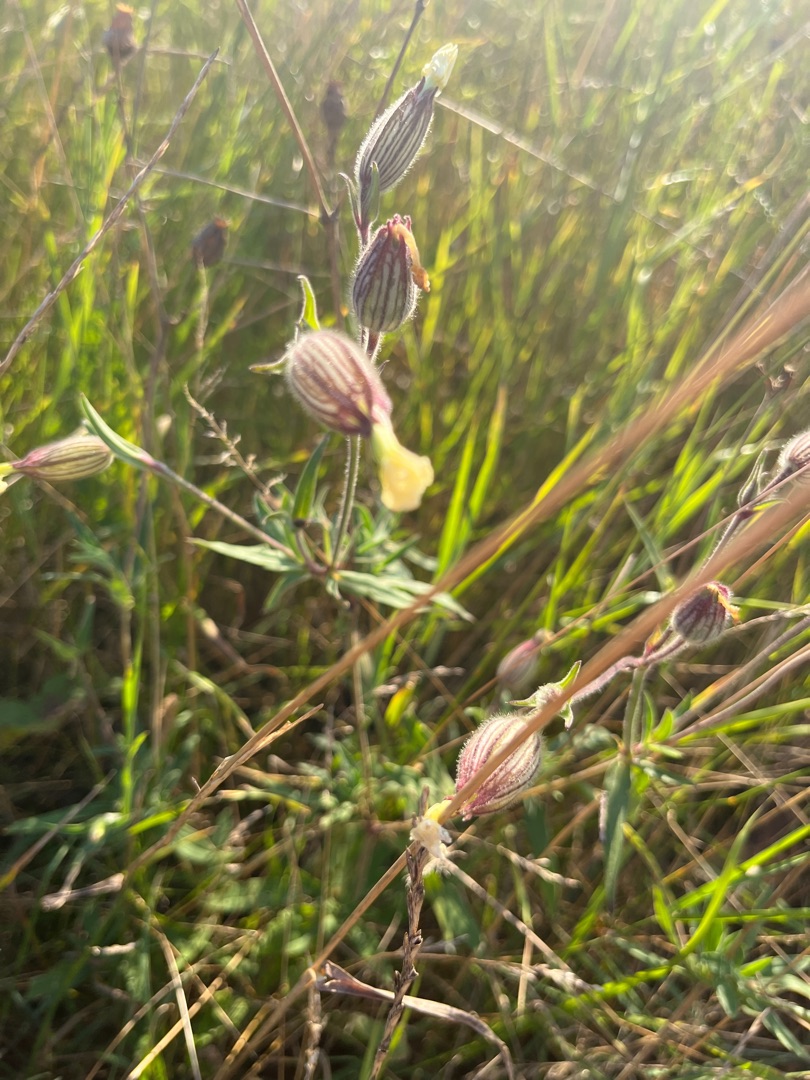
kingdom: Plantae
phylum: Tracheophyta
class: Magnoliopsida
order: Caryophyllales
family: Caryophyllaceae
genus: Silene
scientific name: Silene latifolia
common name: Aftenpragtstjerne
